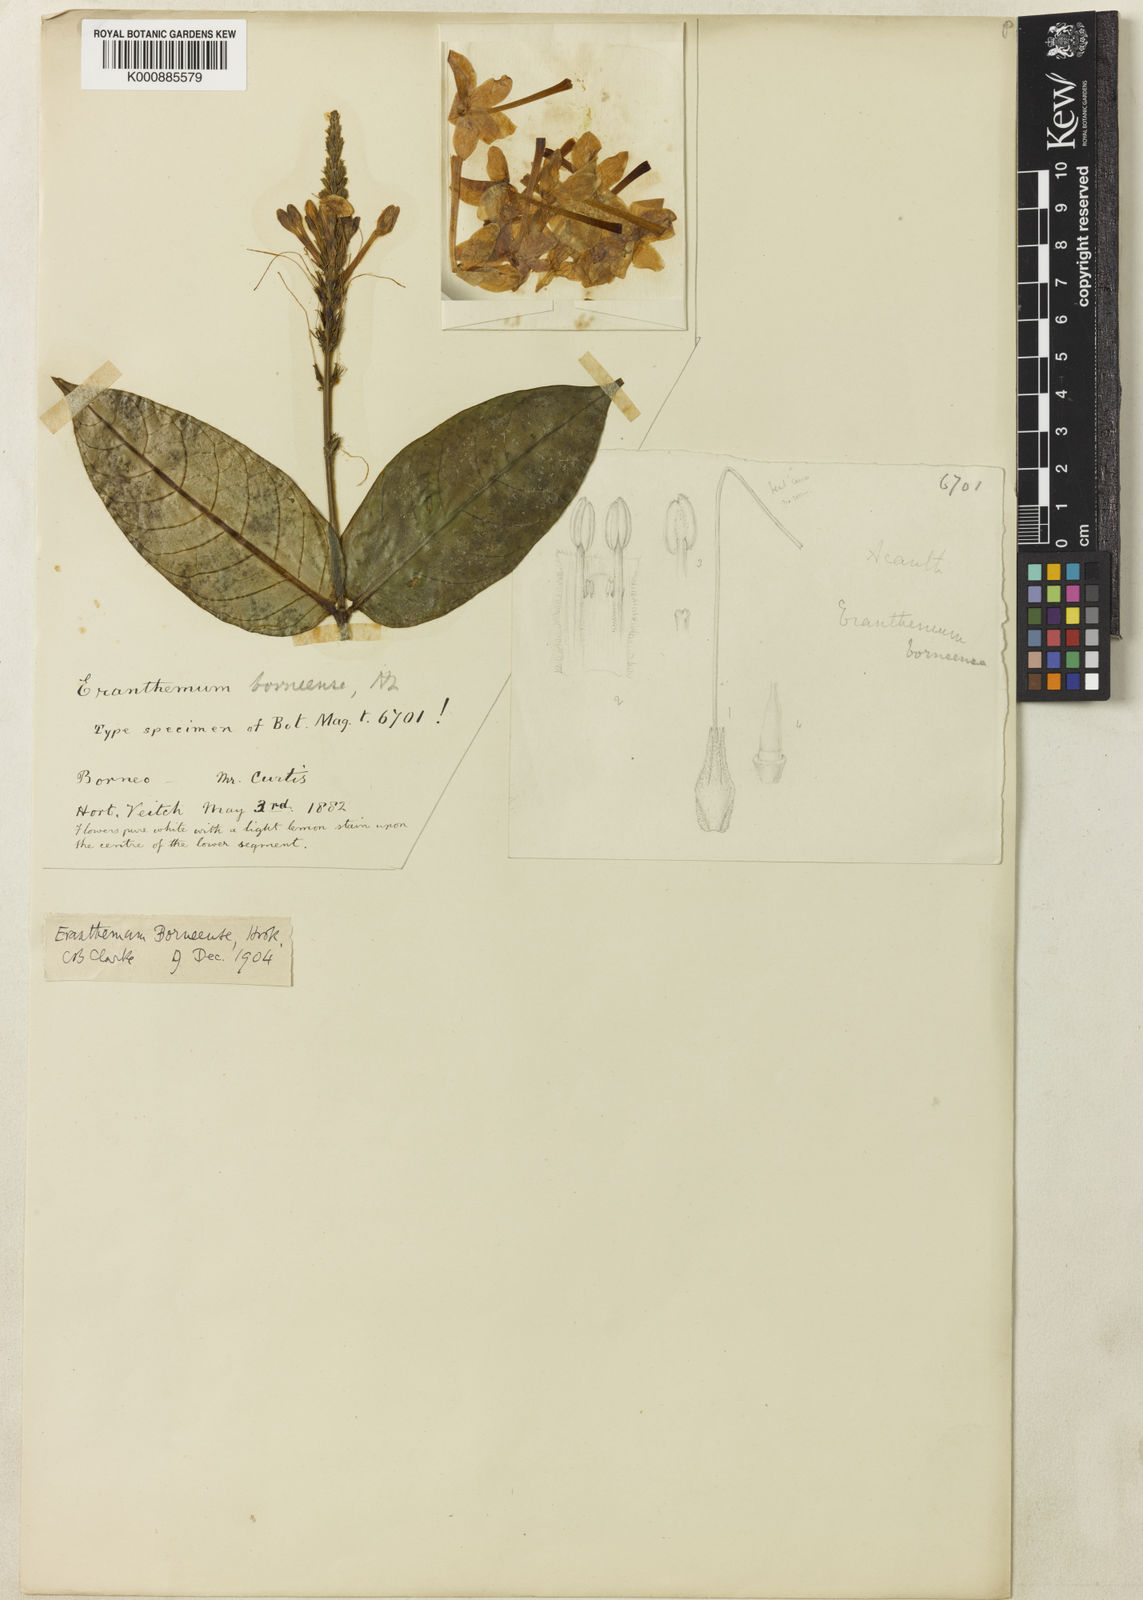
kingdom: Plantae
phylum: Tracheophyta
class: Magnoliopsida
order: Lamiales
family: Acanthaceae
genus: Pseuderanthemum
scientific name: Pseuderanthemum
